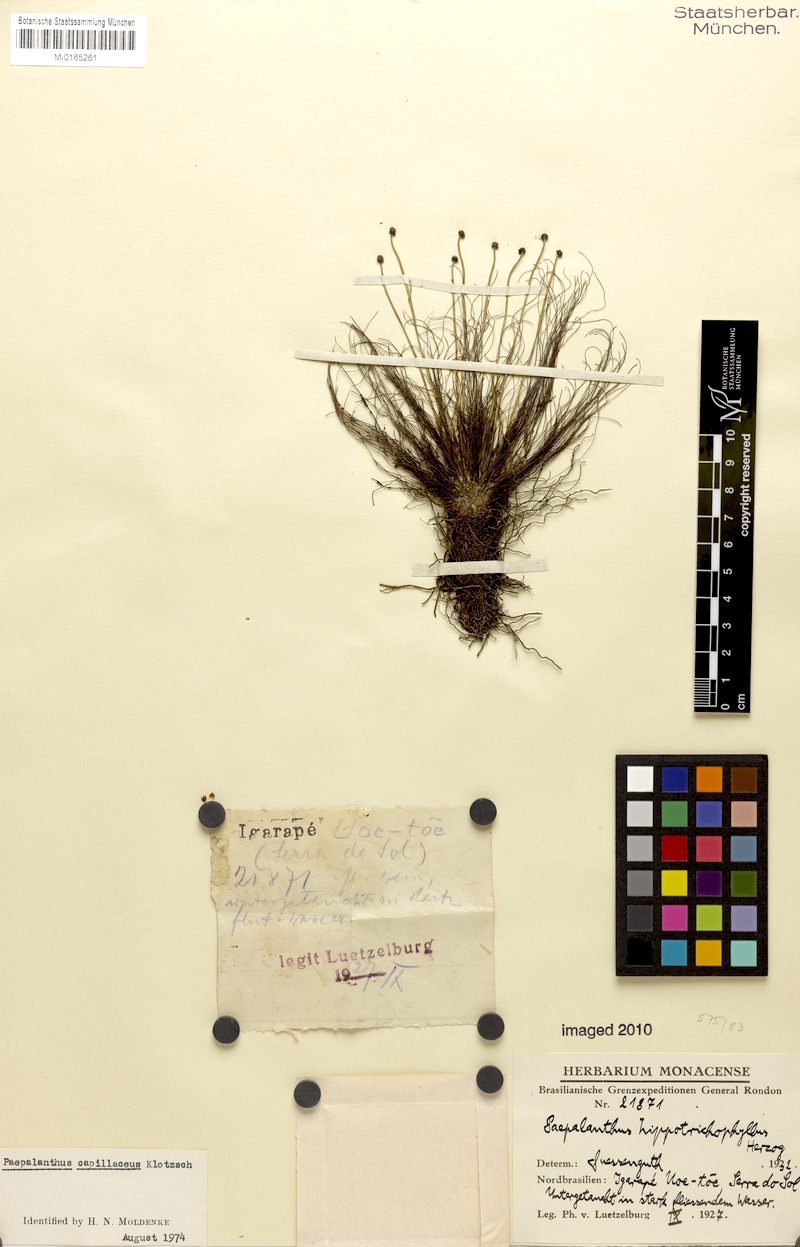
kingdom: Plantae
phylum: Tracheophyta
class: Liliopsida
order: Poales
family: Eriocaulaceae
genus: Rondonanthus
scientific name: Rondonanthus capillaceus
